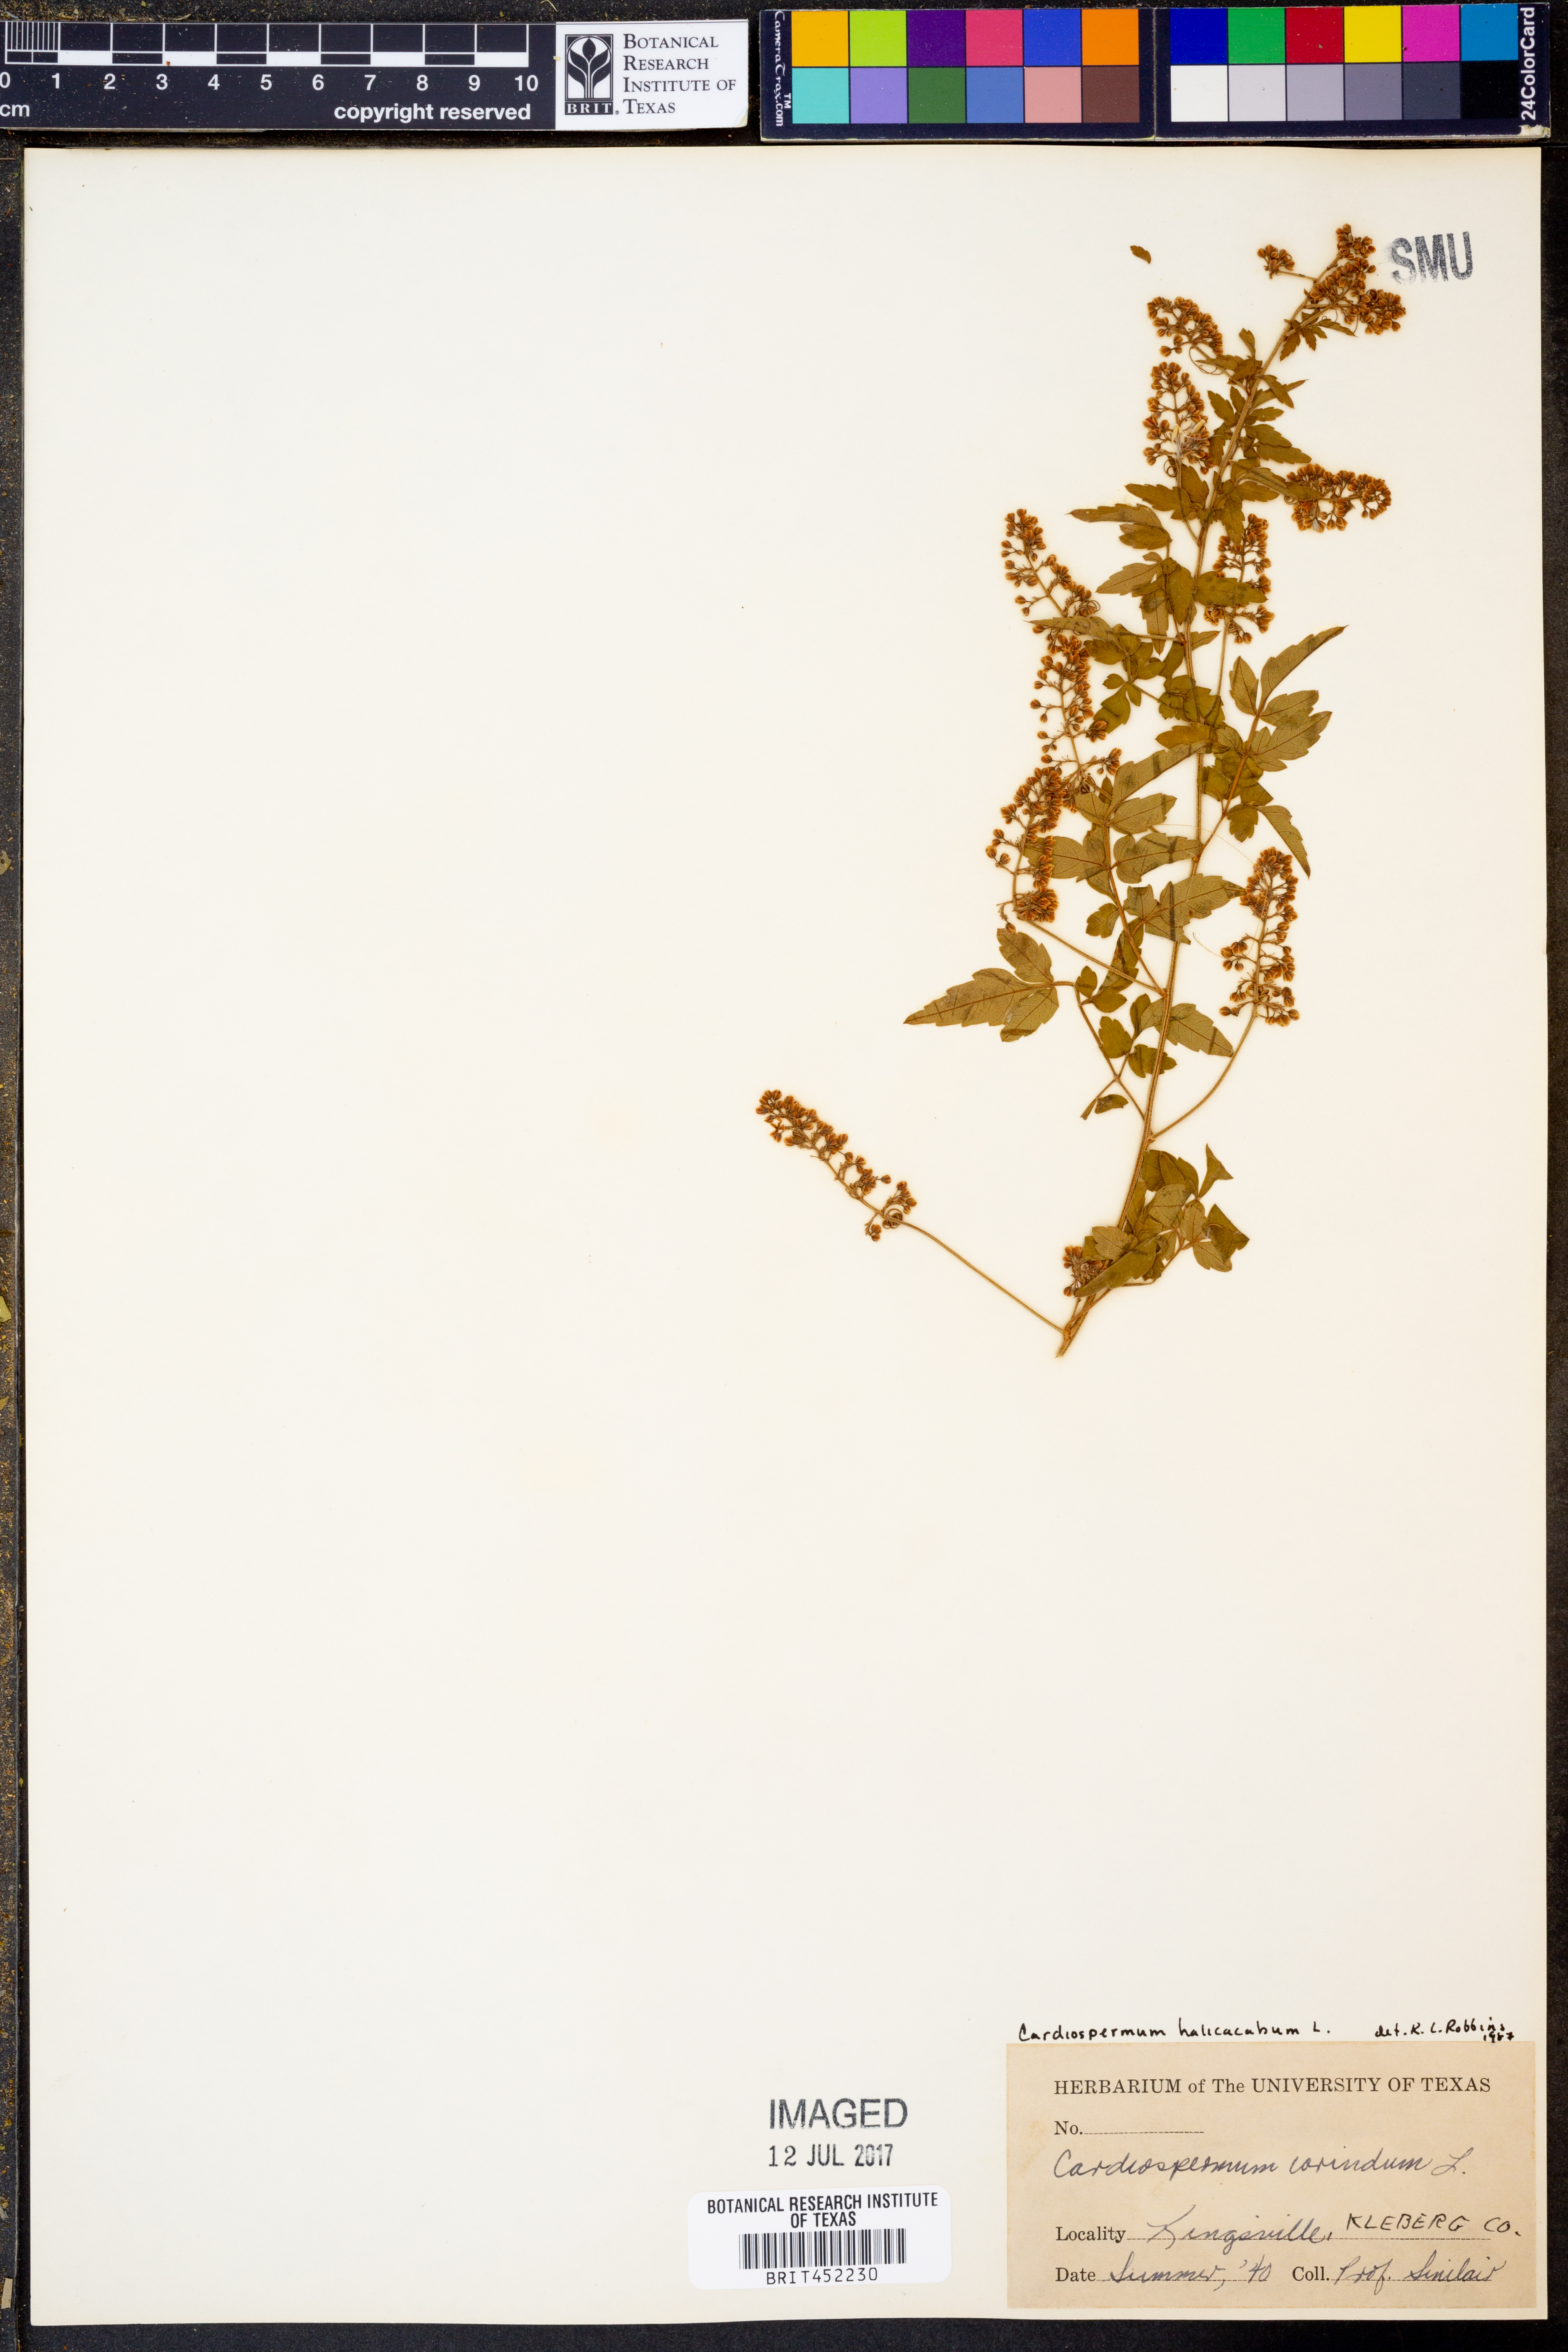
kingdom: Plantae
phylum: Tracheophyta
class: Magnoliopsida
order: Sapindales
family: Sapindaceae
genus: Cardiospermum
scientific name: Cardiospermum corindum
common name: Faux persil
